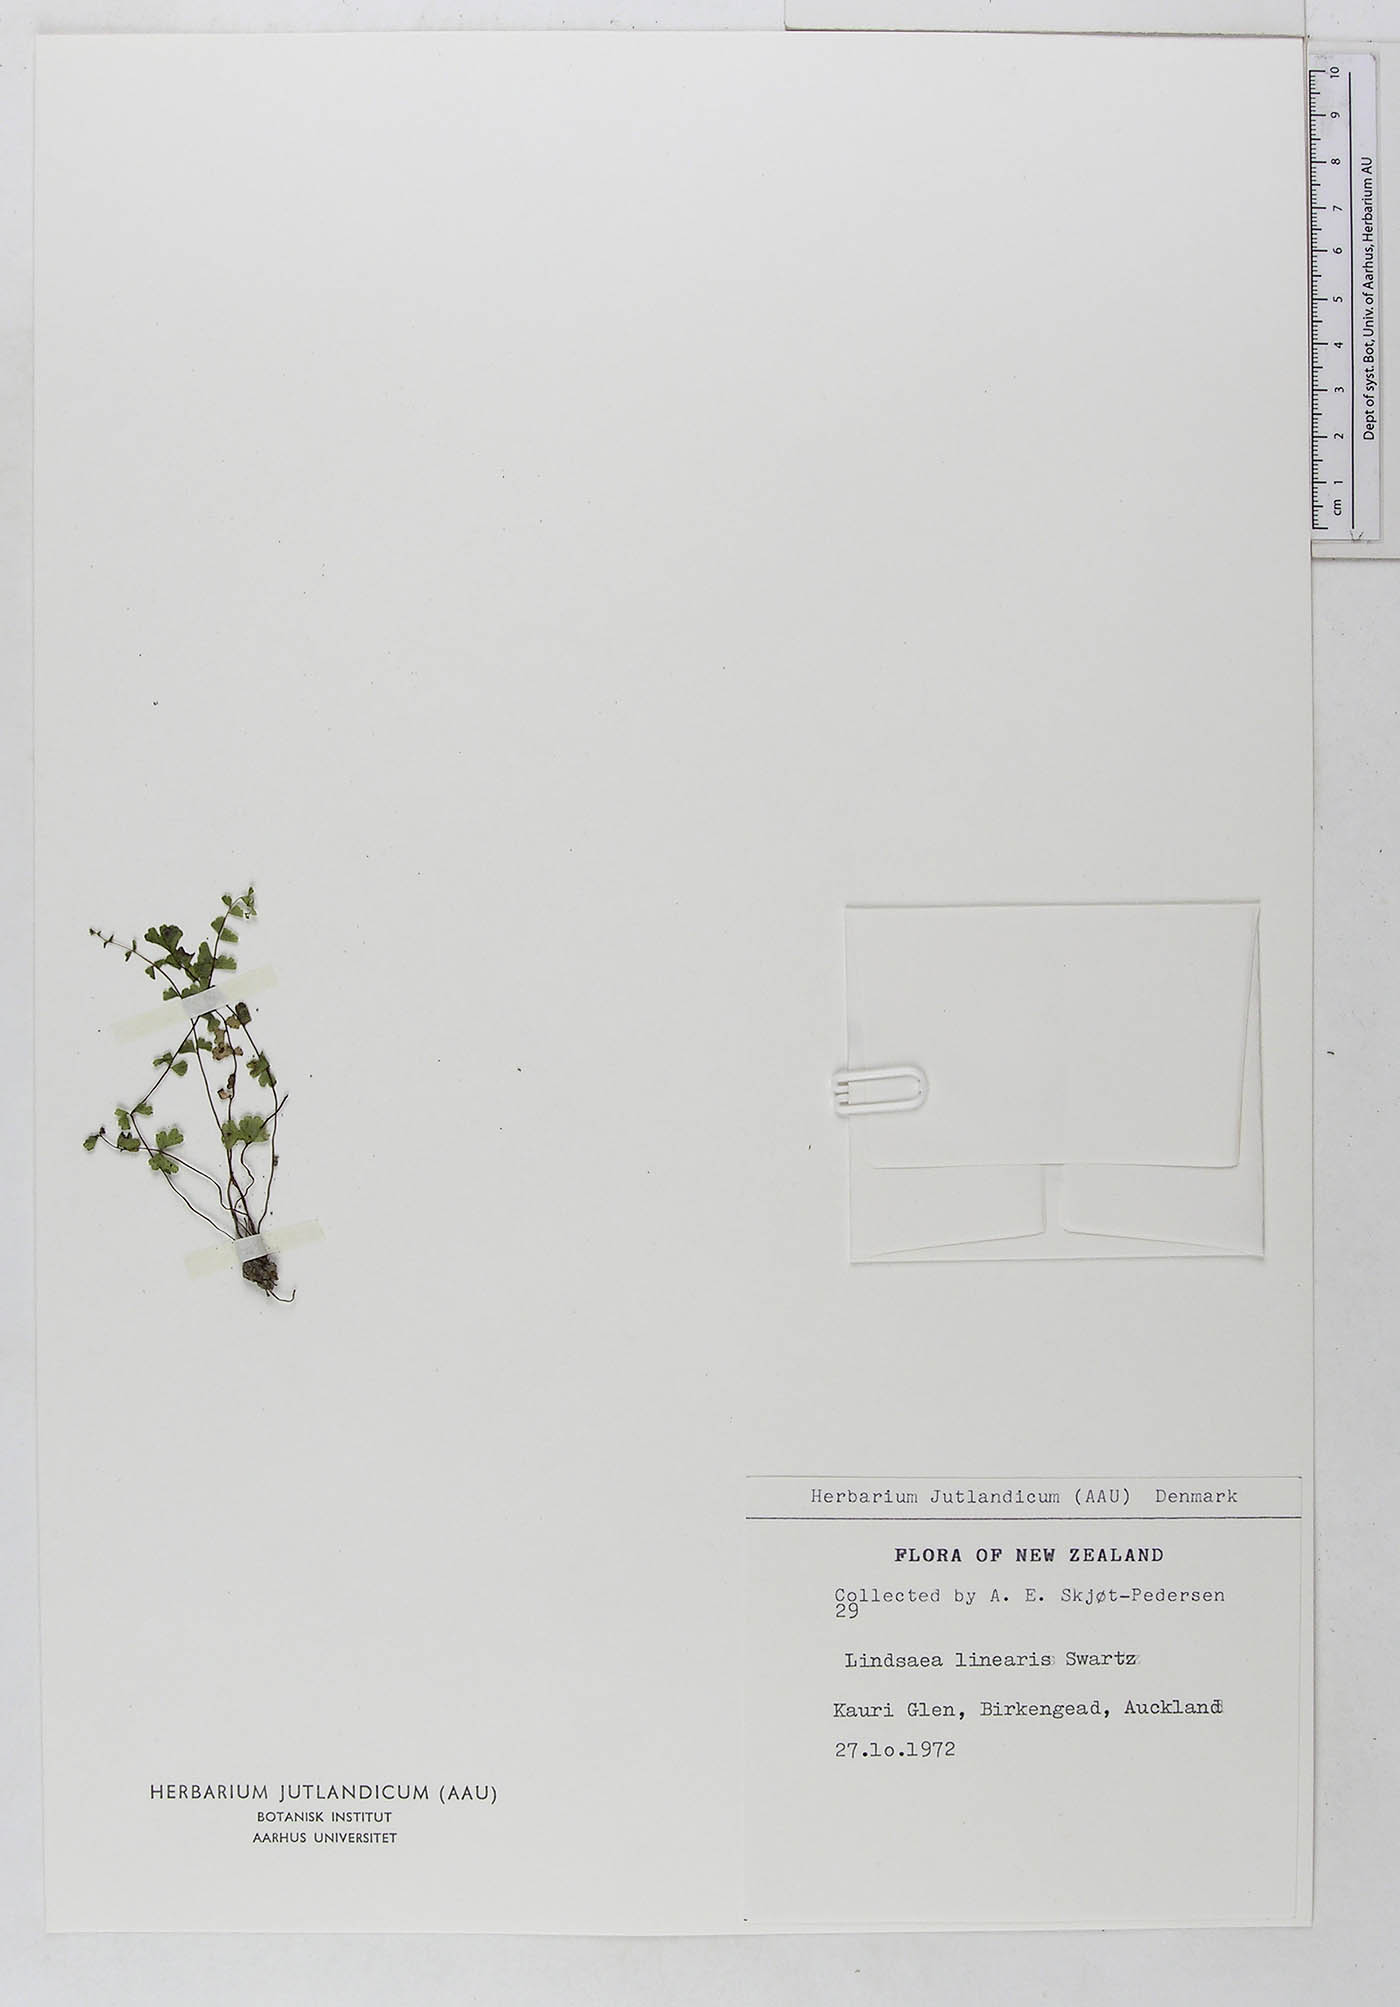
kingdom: Plantae
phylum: Tracheophyta
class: Polypodiopsida
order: Polypodiales
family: Lindsaeaceae
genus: Lindsaea
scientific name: Lindsaea linearis
